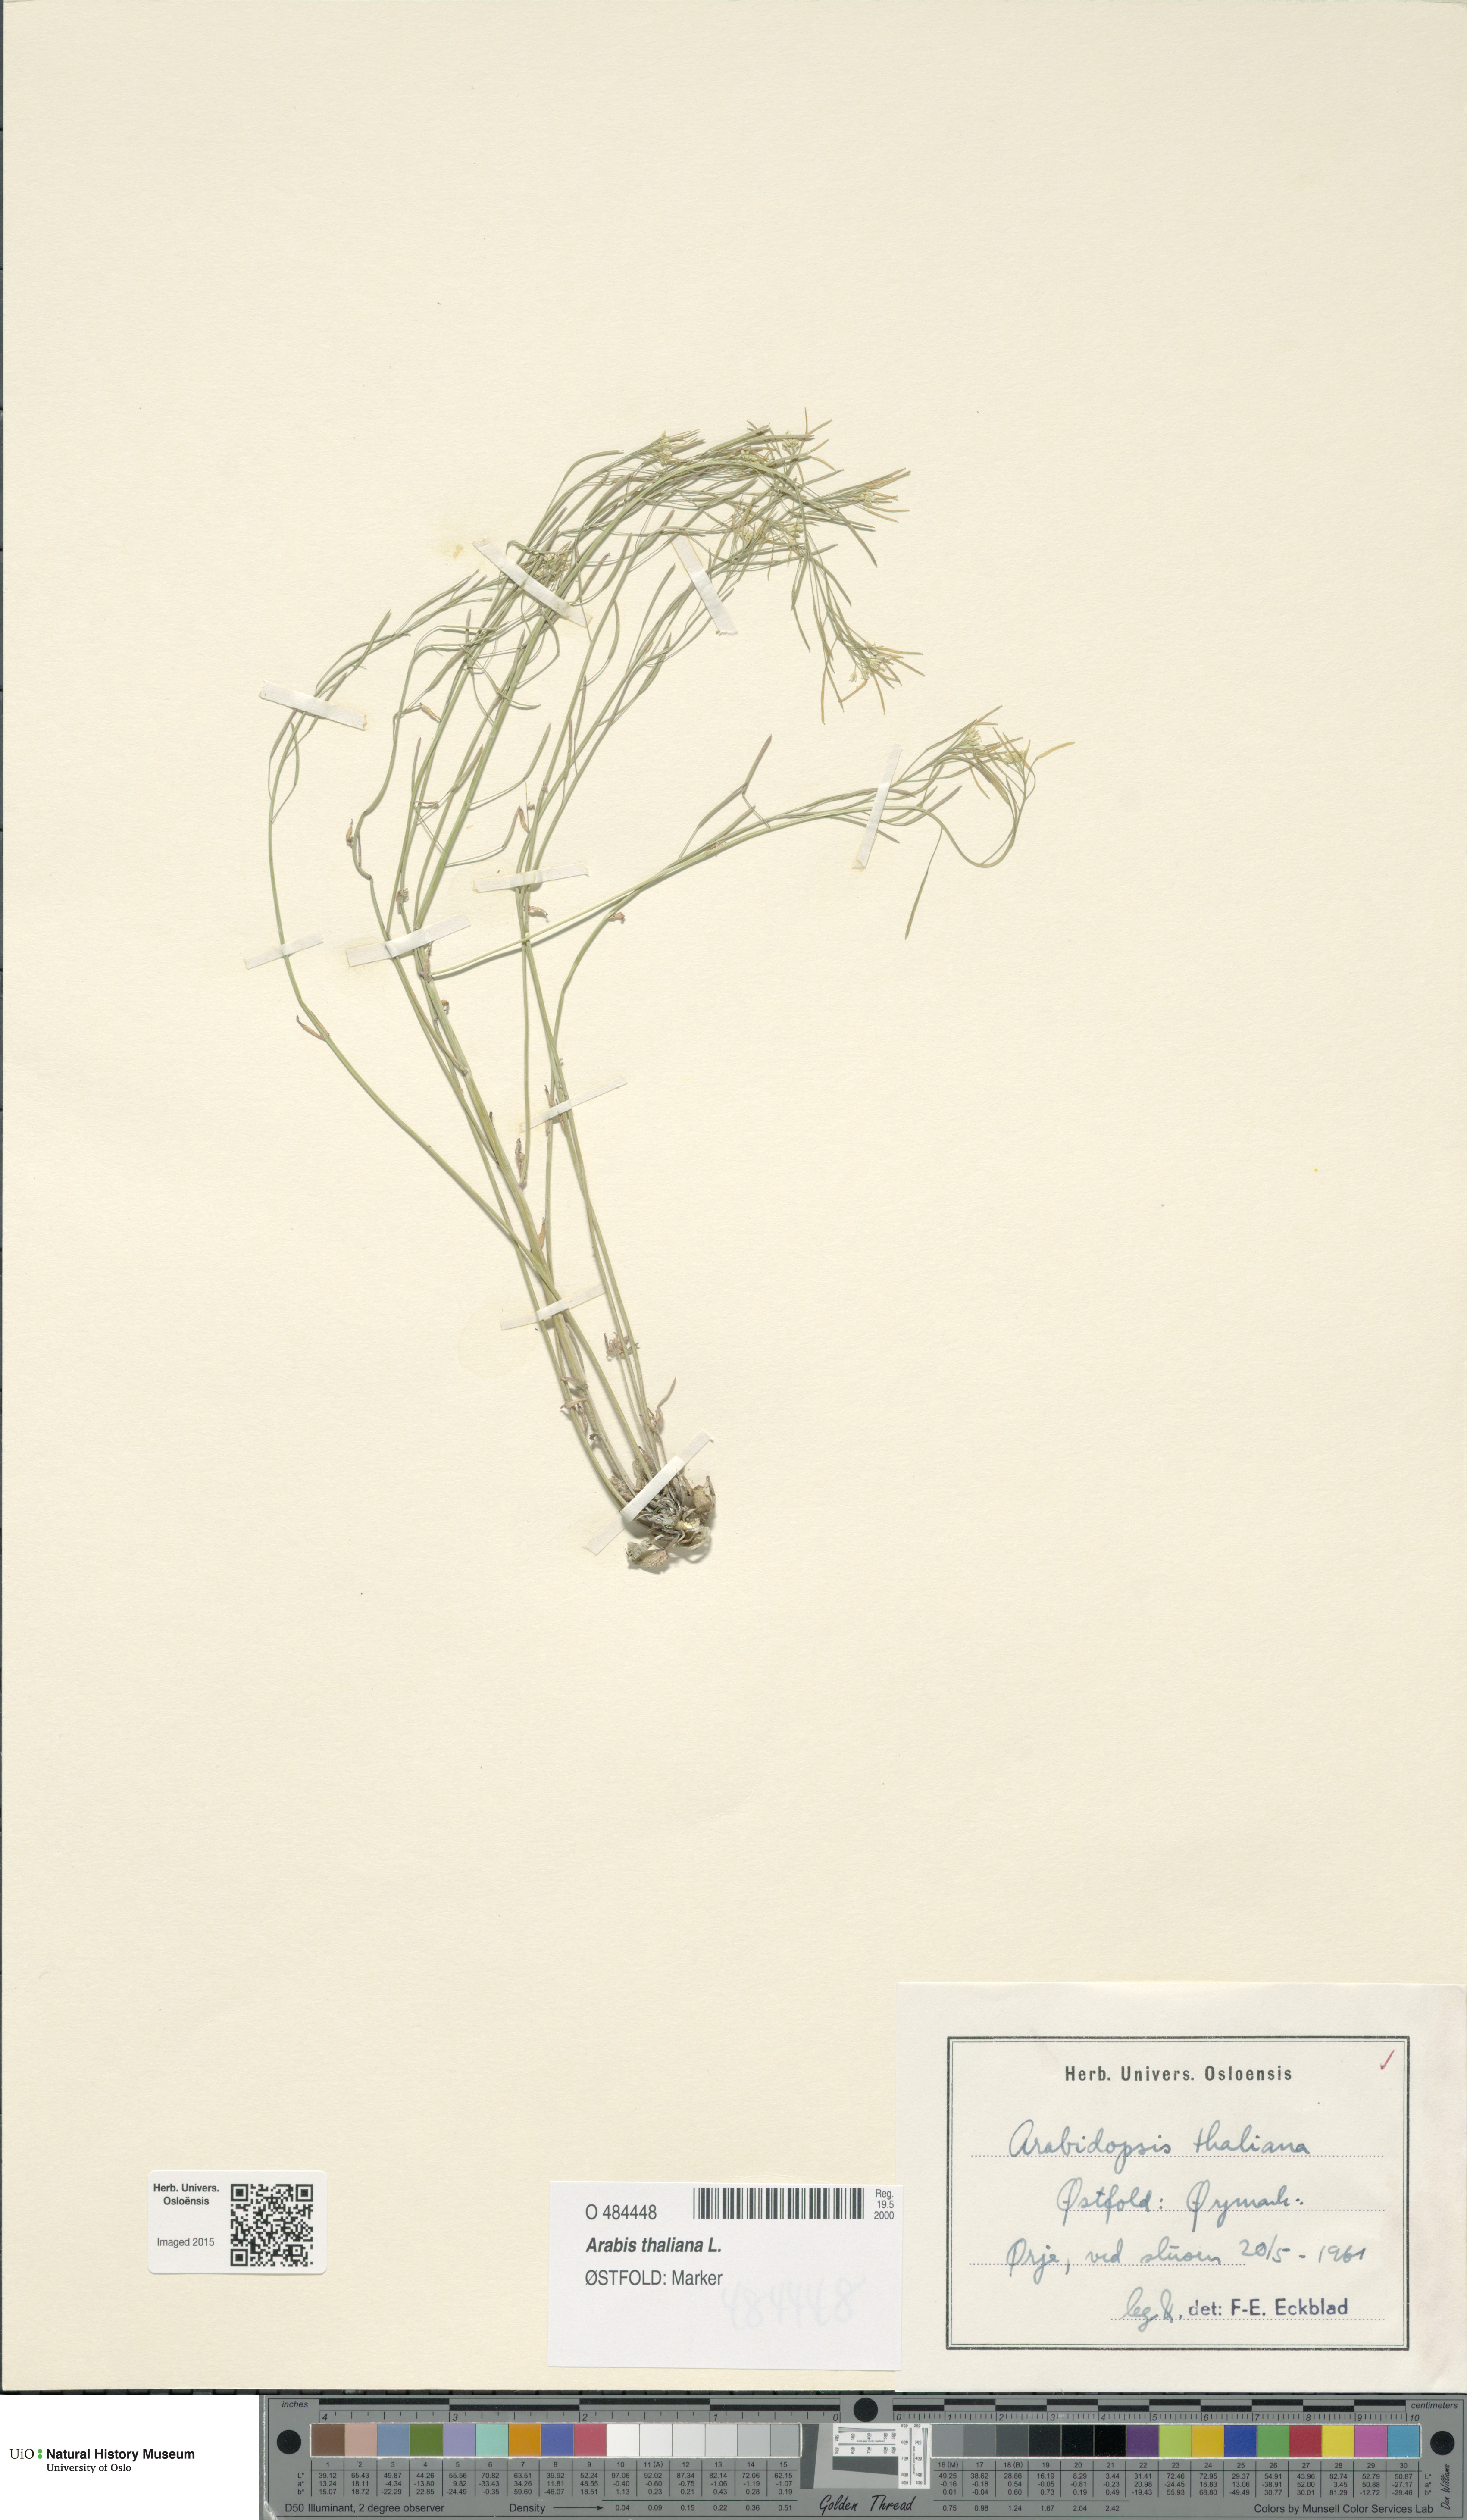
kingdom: Plantae
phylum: Tracheophyta
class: Magnoliopsida
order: Brassicales
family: Brassicaceae
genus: Arabidopsis
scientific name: Arabidopsis thaliana
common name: Thale cress
